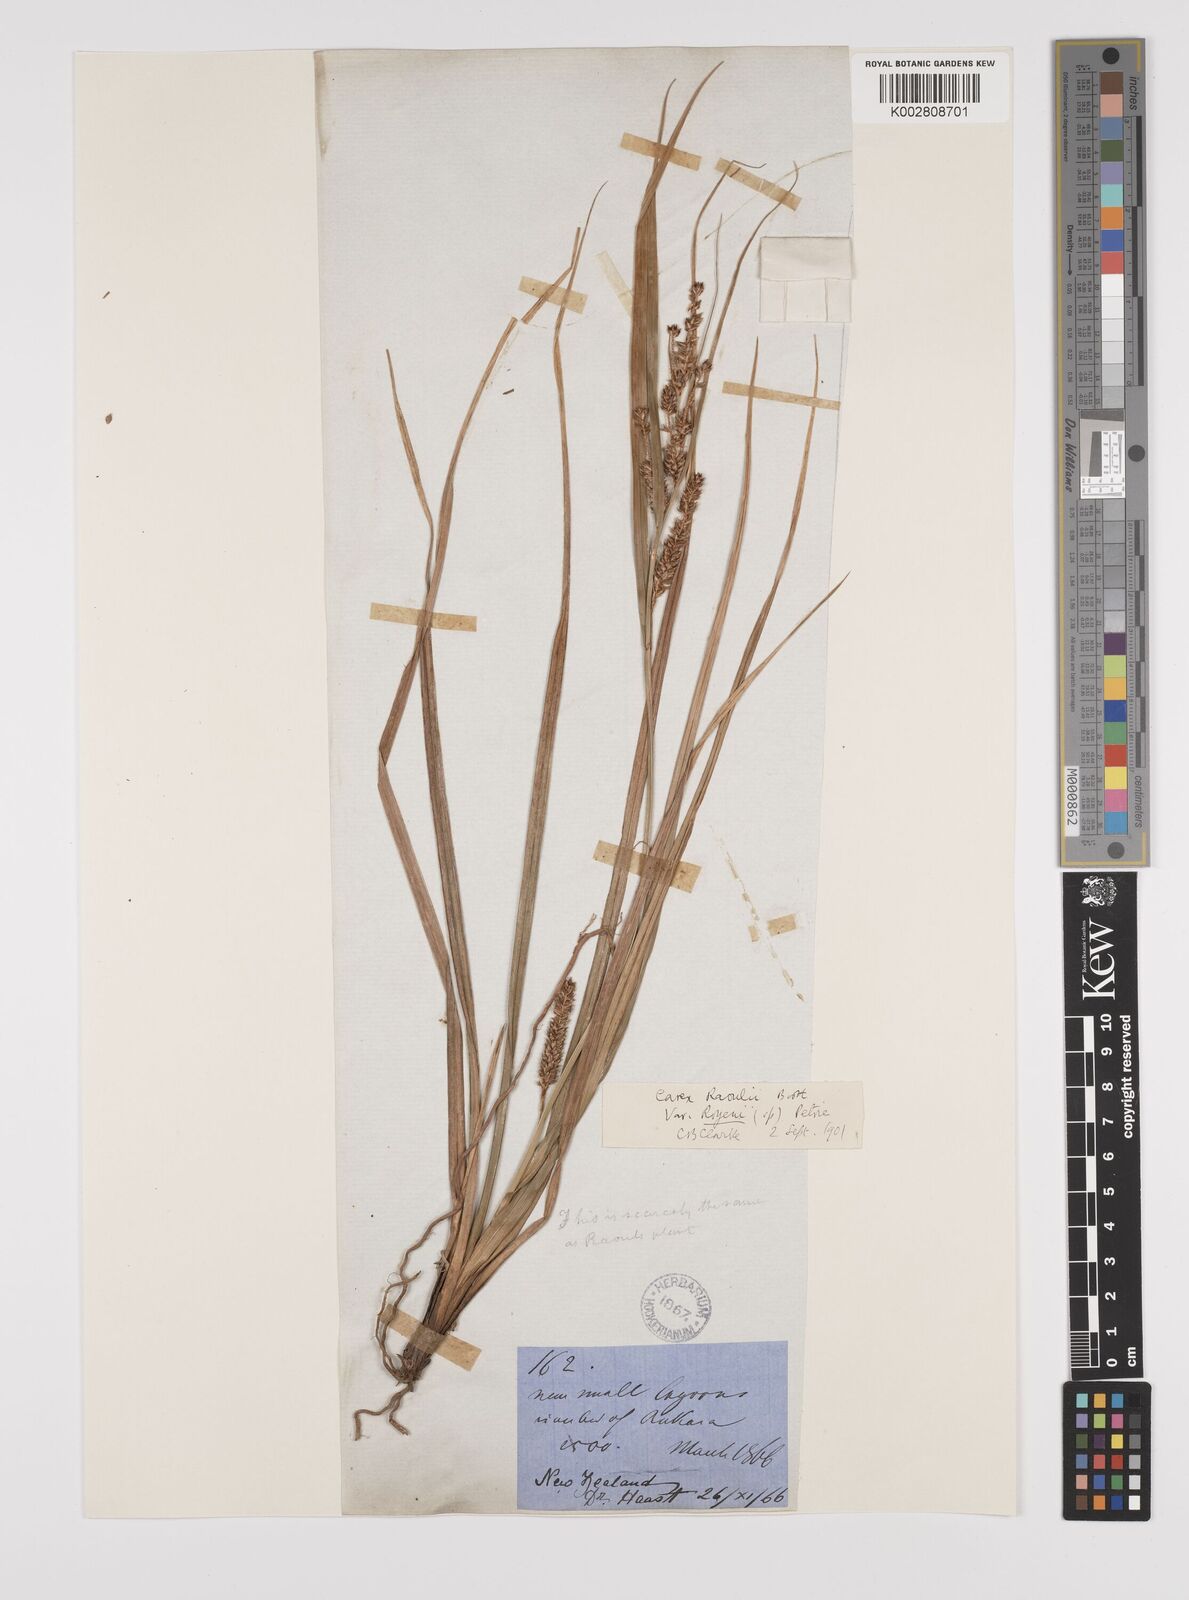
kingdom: Plantae
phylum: Tracheophyta
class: Liliopsida
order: Poales
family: Cyperaceae
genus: Carex
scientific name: Carex goyenii
